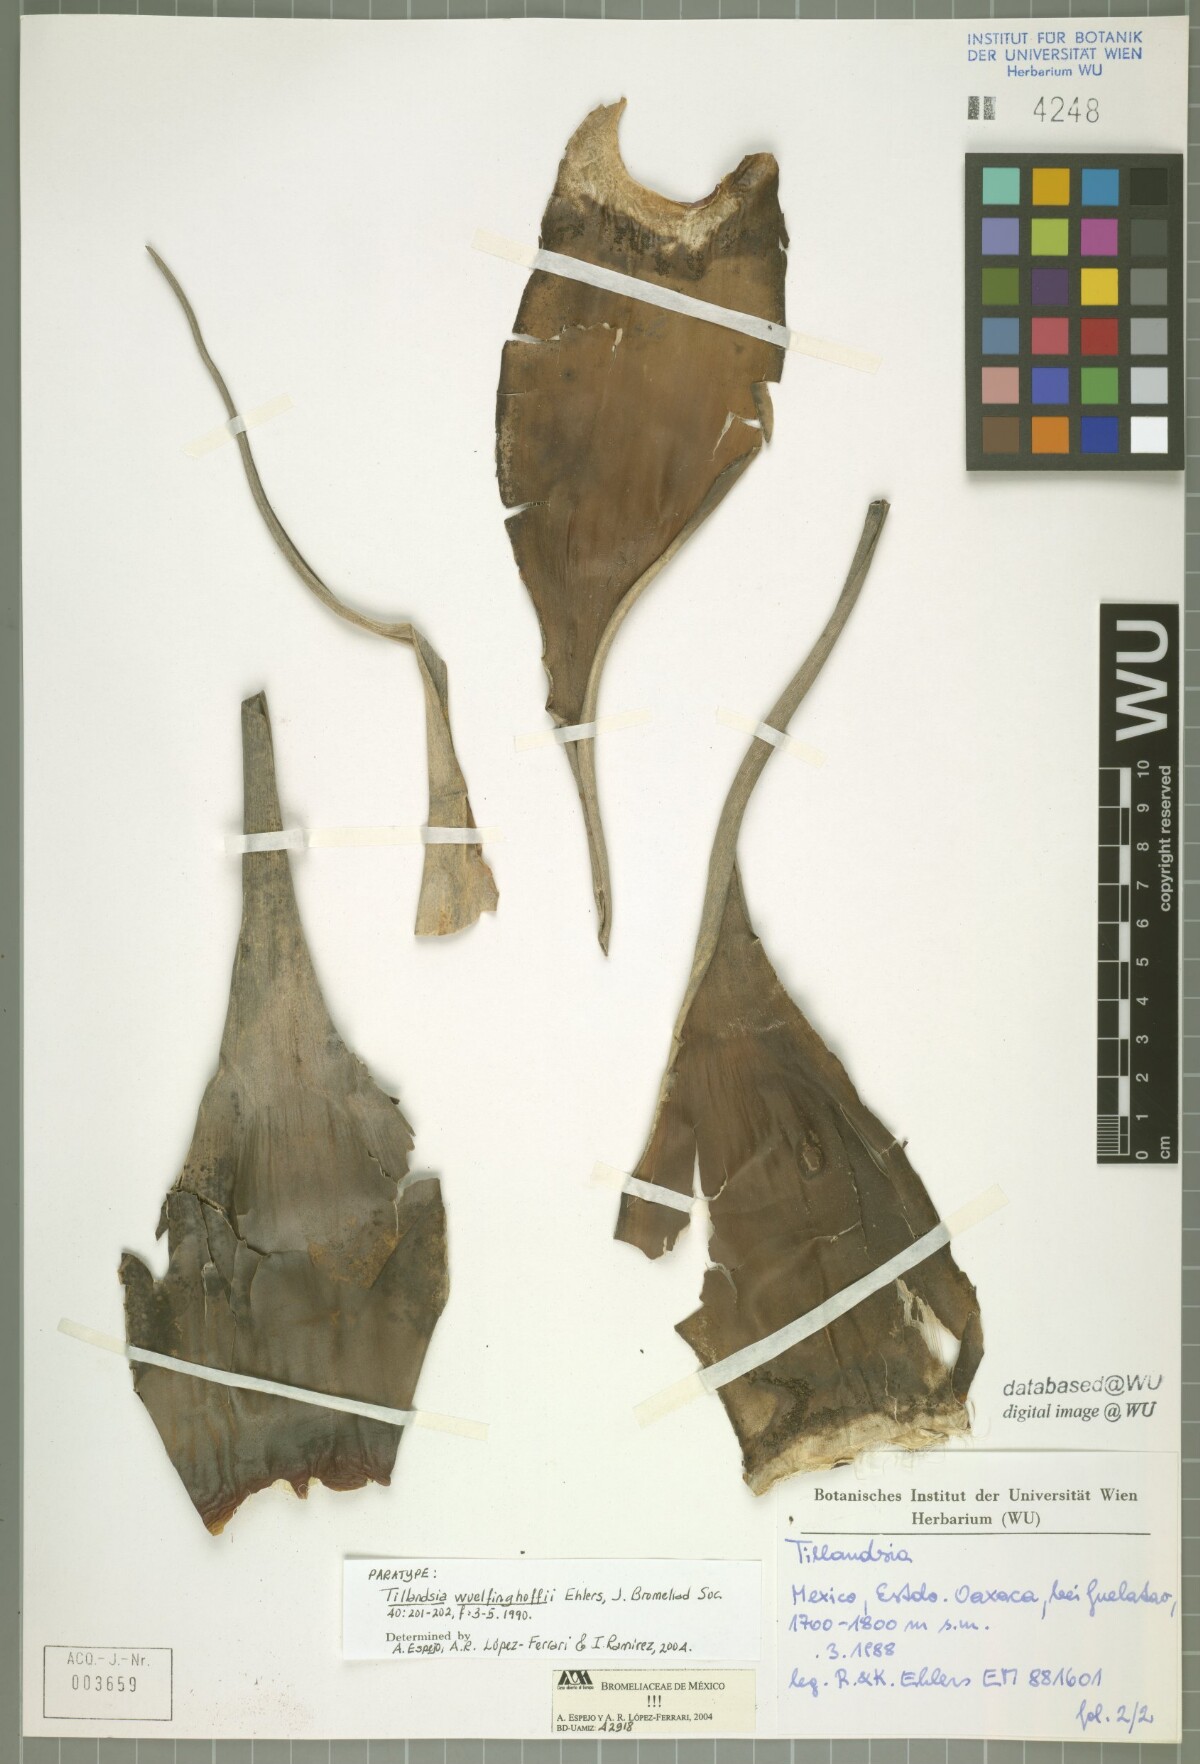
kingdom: Plantae
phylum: Tracheophyta
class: Liliopsida
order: Poales
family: Bromeliaceae
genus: Tillandsia
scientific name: Tillandsia wuelfinghoffii
